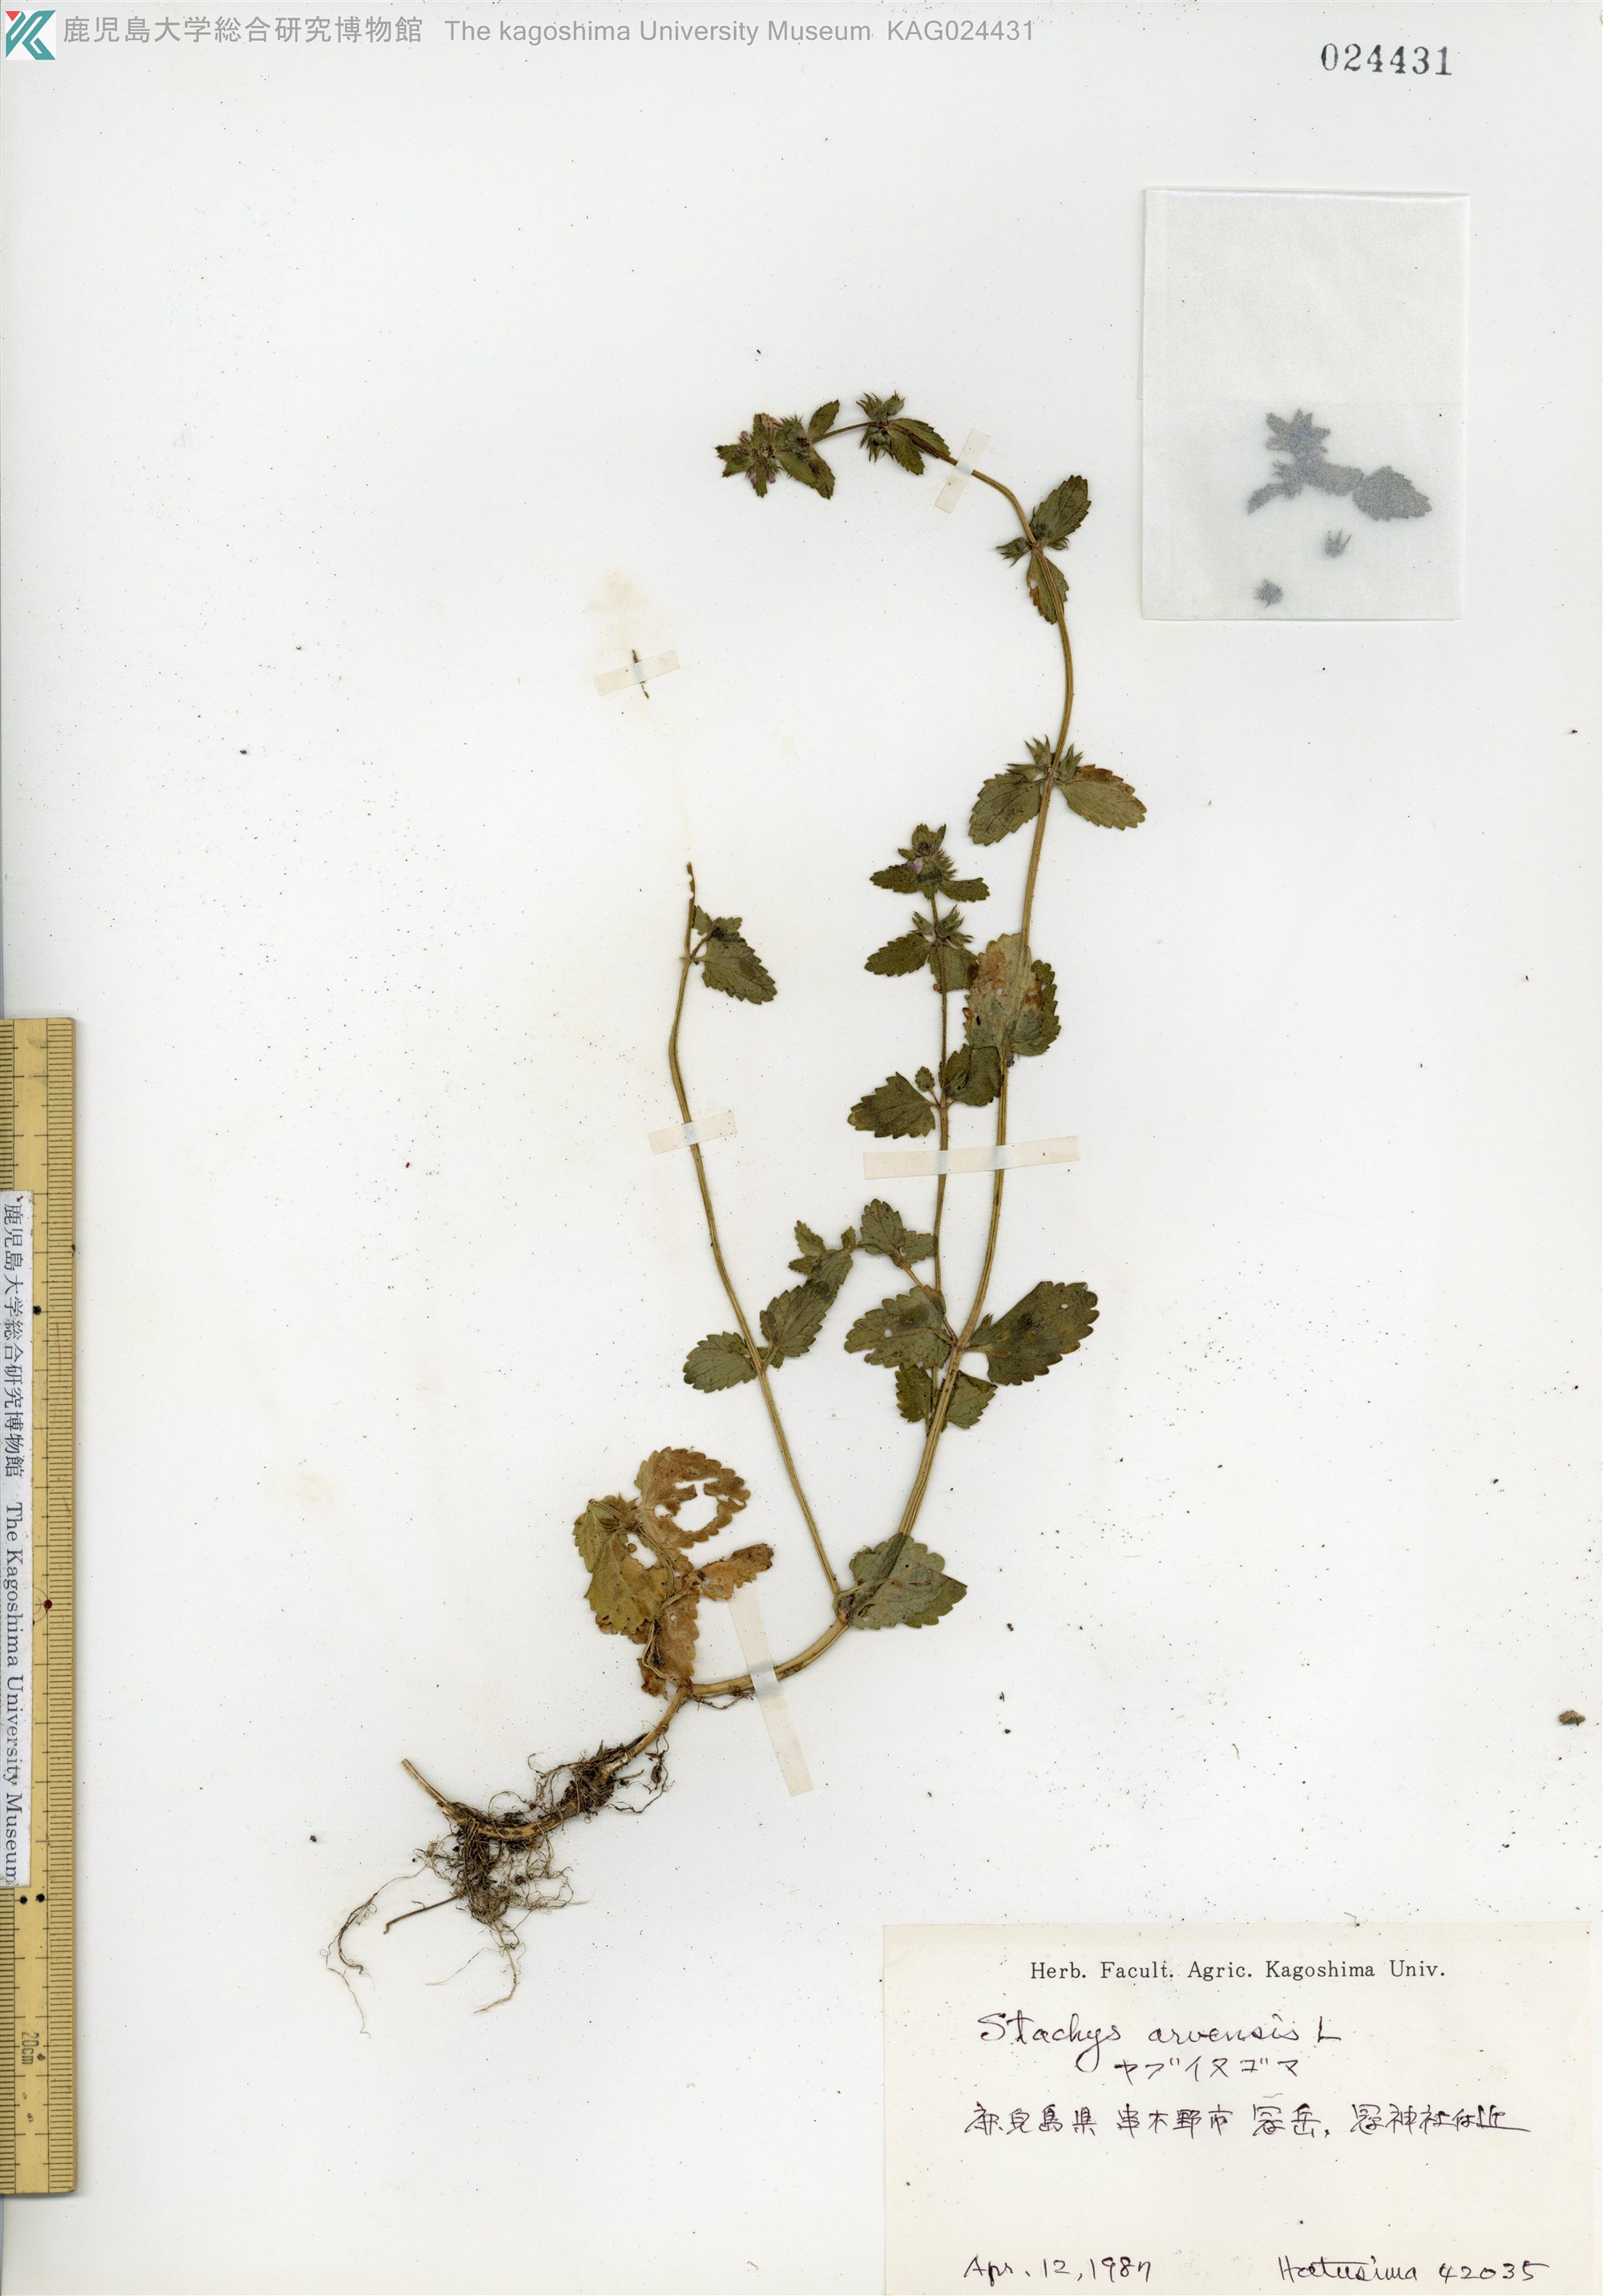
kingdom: Plantae
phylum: Tracheophyta
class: Magnoliopsida
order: Lamiales
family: Lamiaceae
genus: Stachys
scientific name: Stachys arvensis
